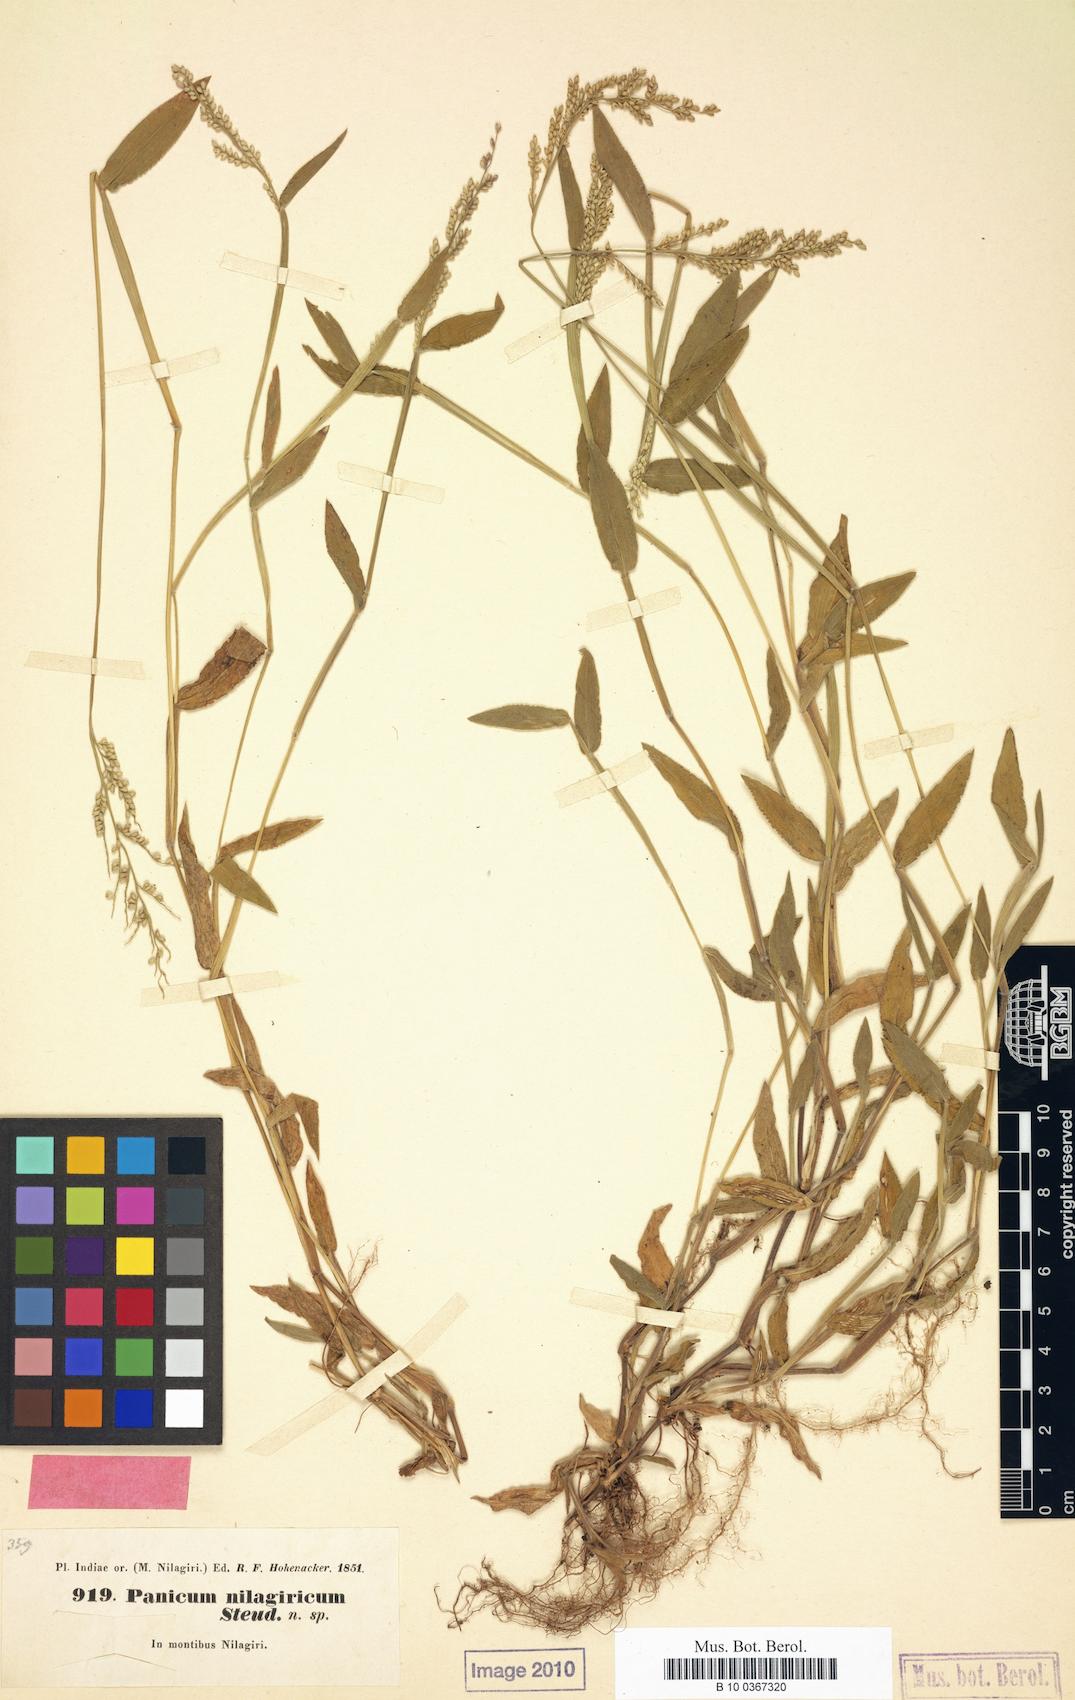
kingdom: Plantae
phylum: Tracheophyta
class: Liliopsida
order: Poales
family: Poaceae
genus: Urochloa
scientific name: Urochloa reptans
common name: Sprawling signalgrass
